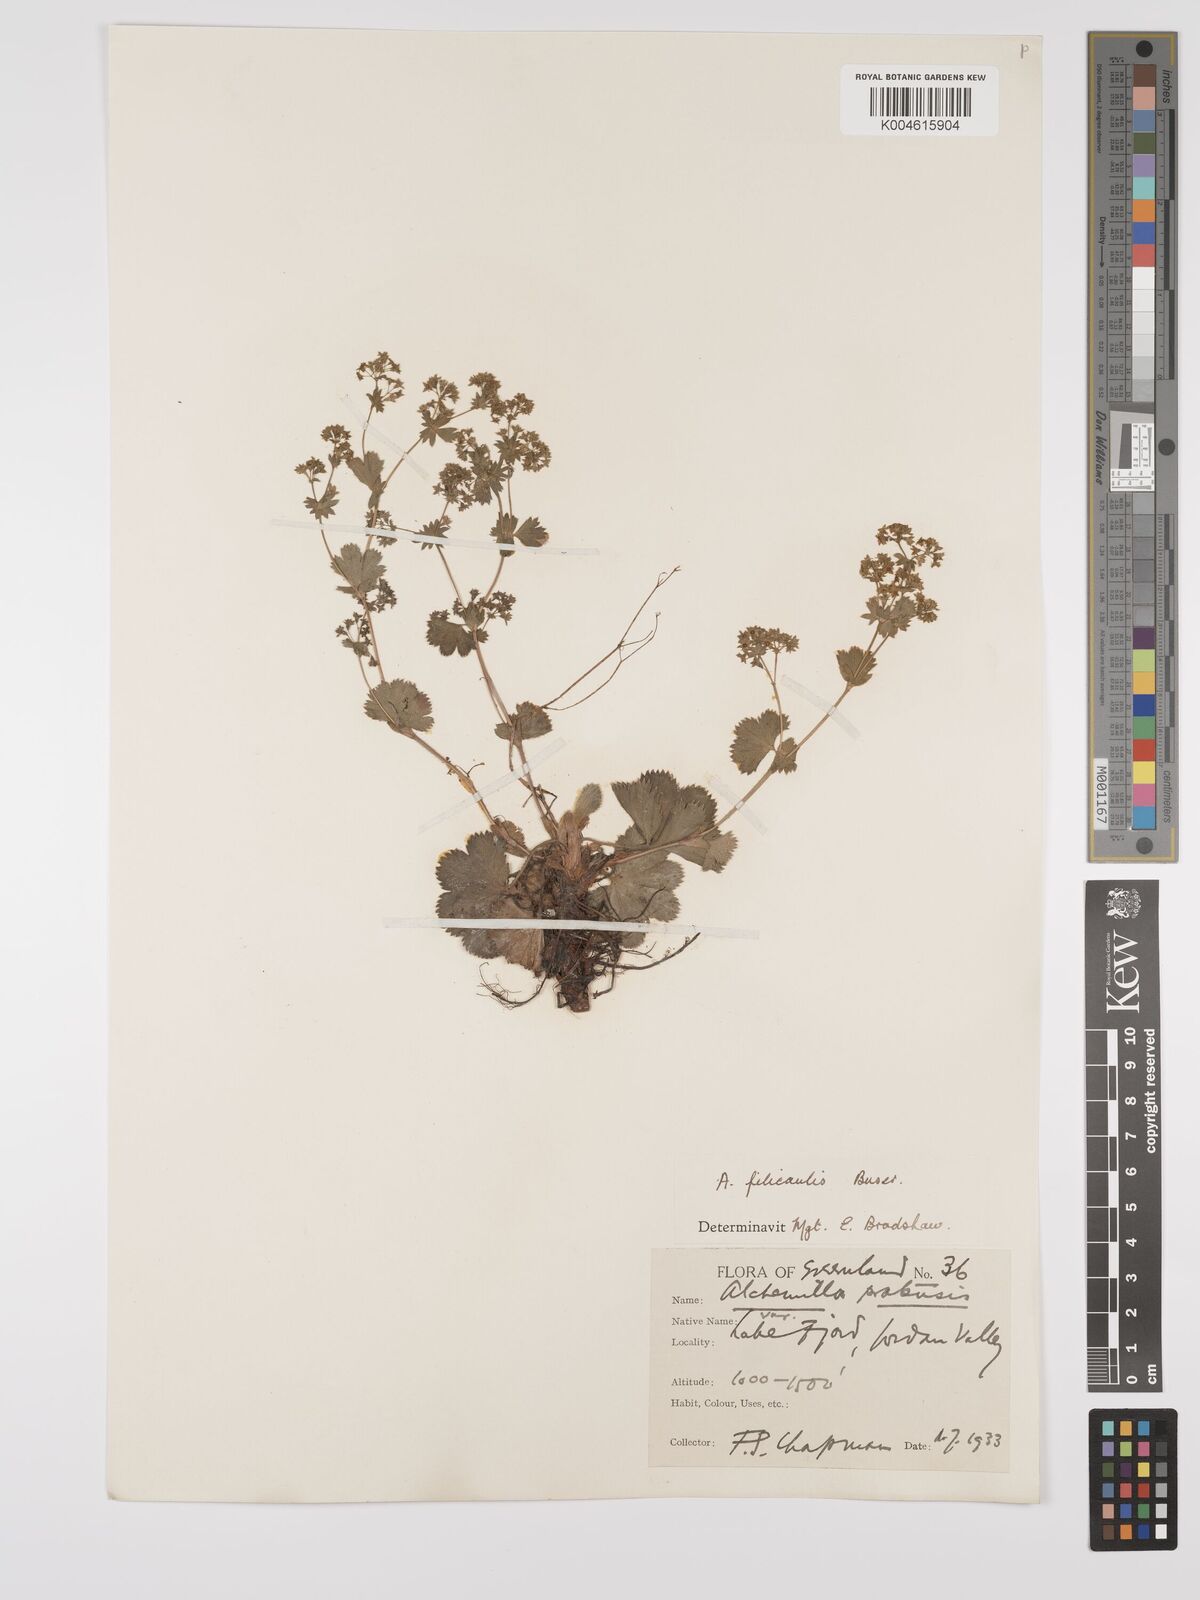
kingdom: Plantae
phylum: Tracheophyta
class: Magnoliopsida
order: Rosales
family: Rosaceae
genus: Alchemilla
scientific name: Alchemilla vulgaris
